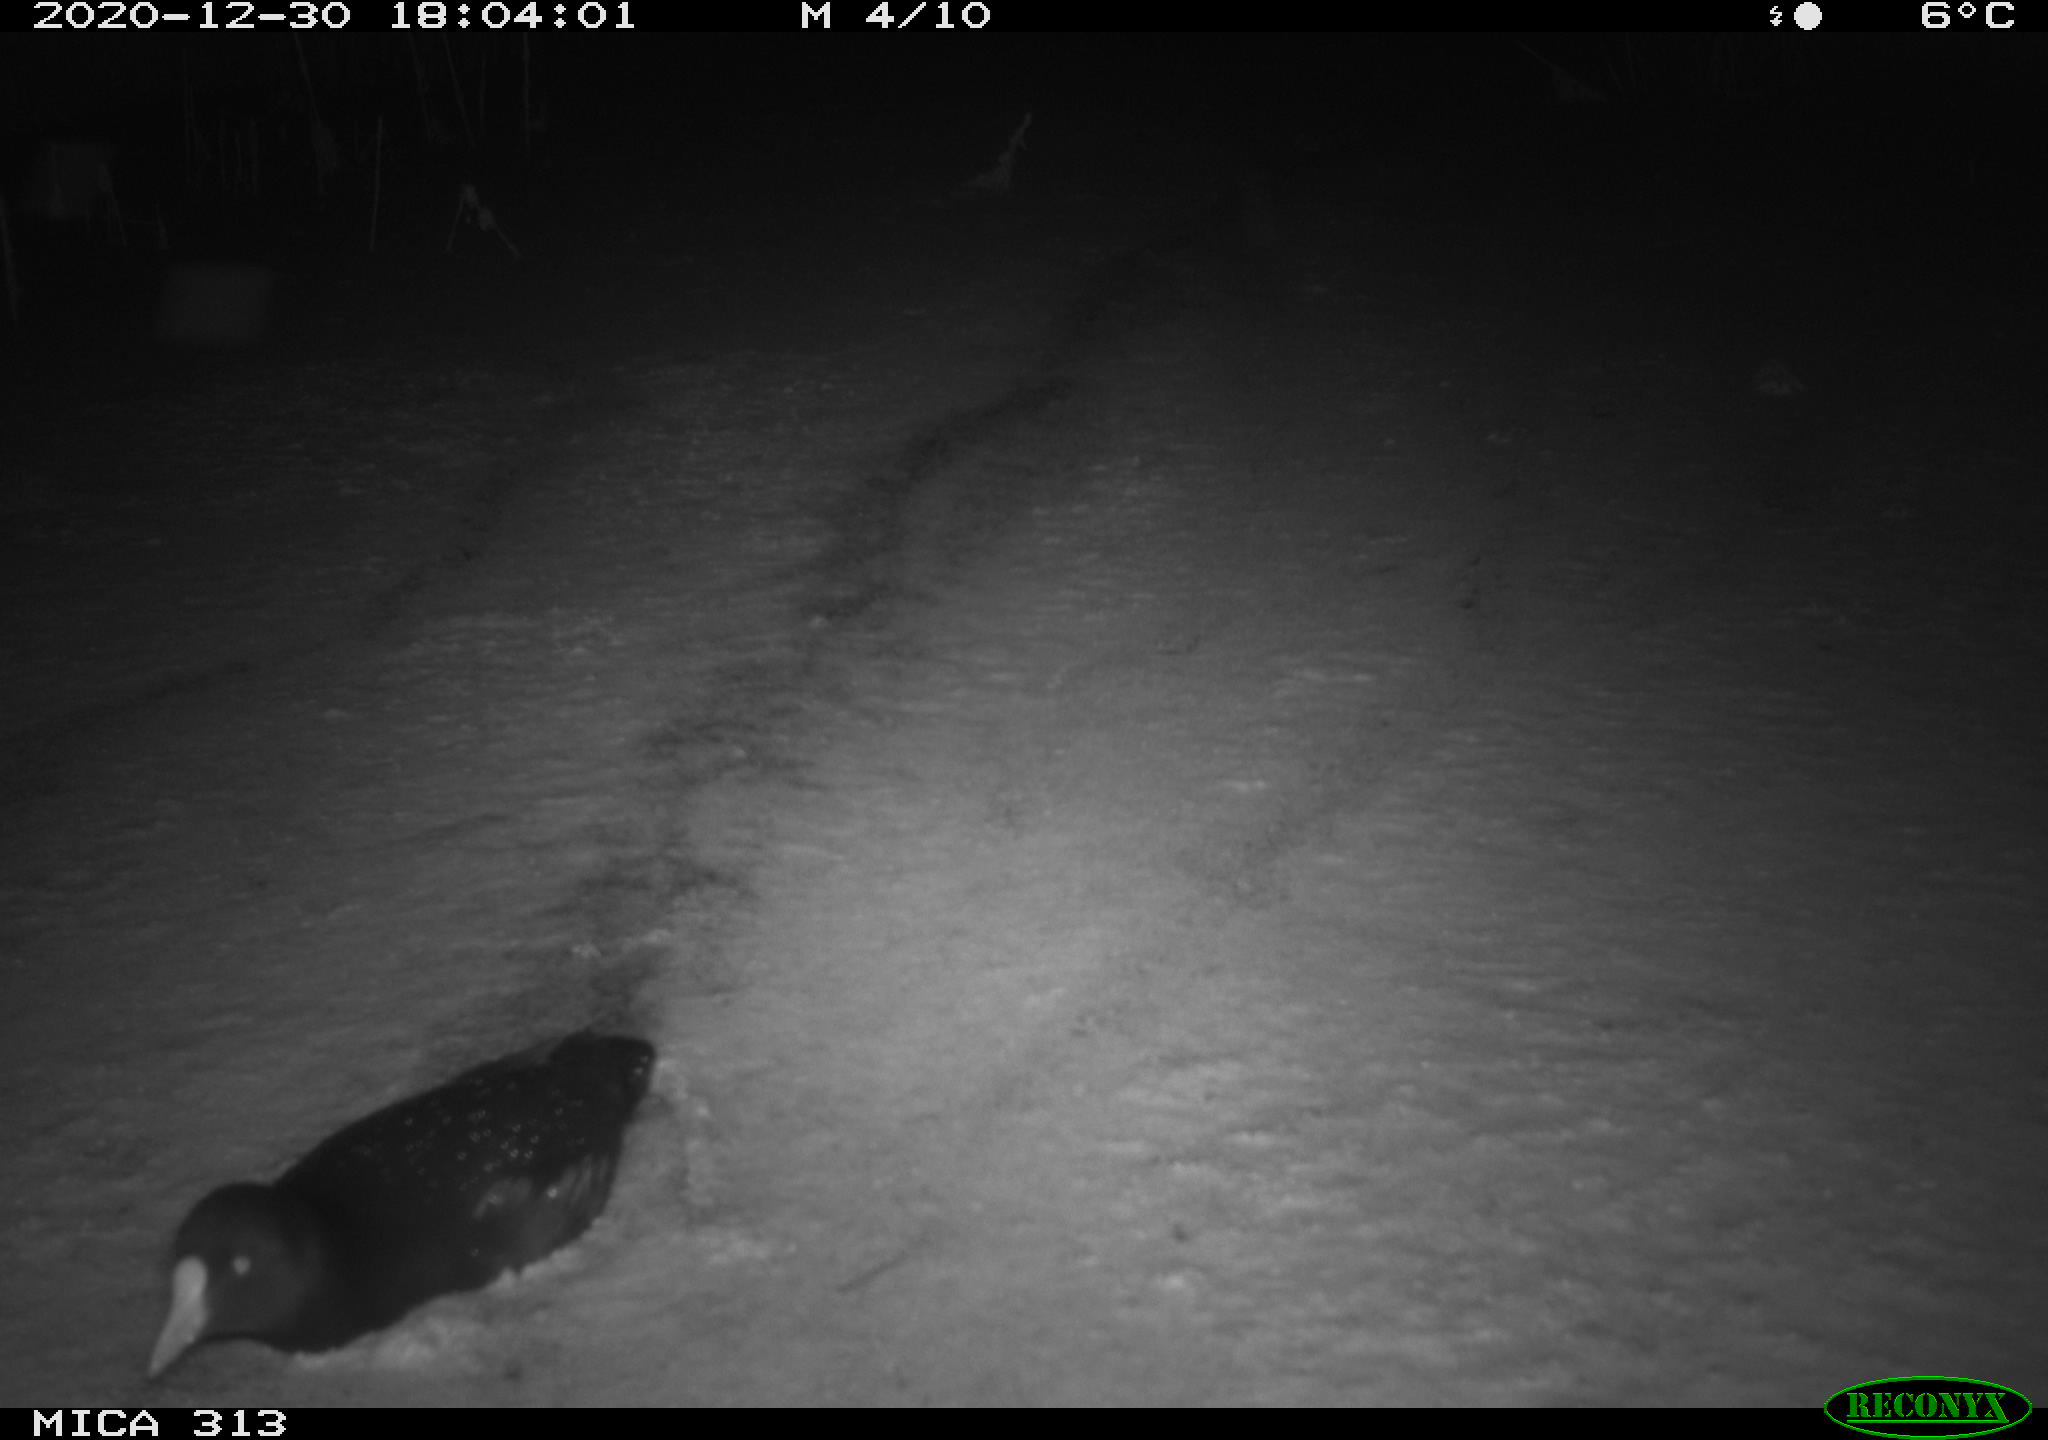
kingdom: Animalia
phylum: Chordata
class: Aves
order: Gruiformes
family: Rallidae
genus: Gallinula
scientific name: Gallinula chloropus
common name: Common moorhen
